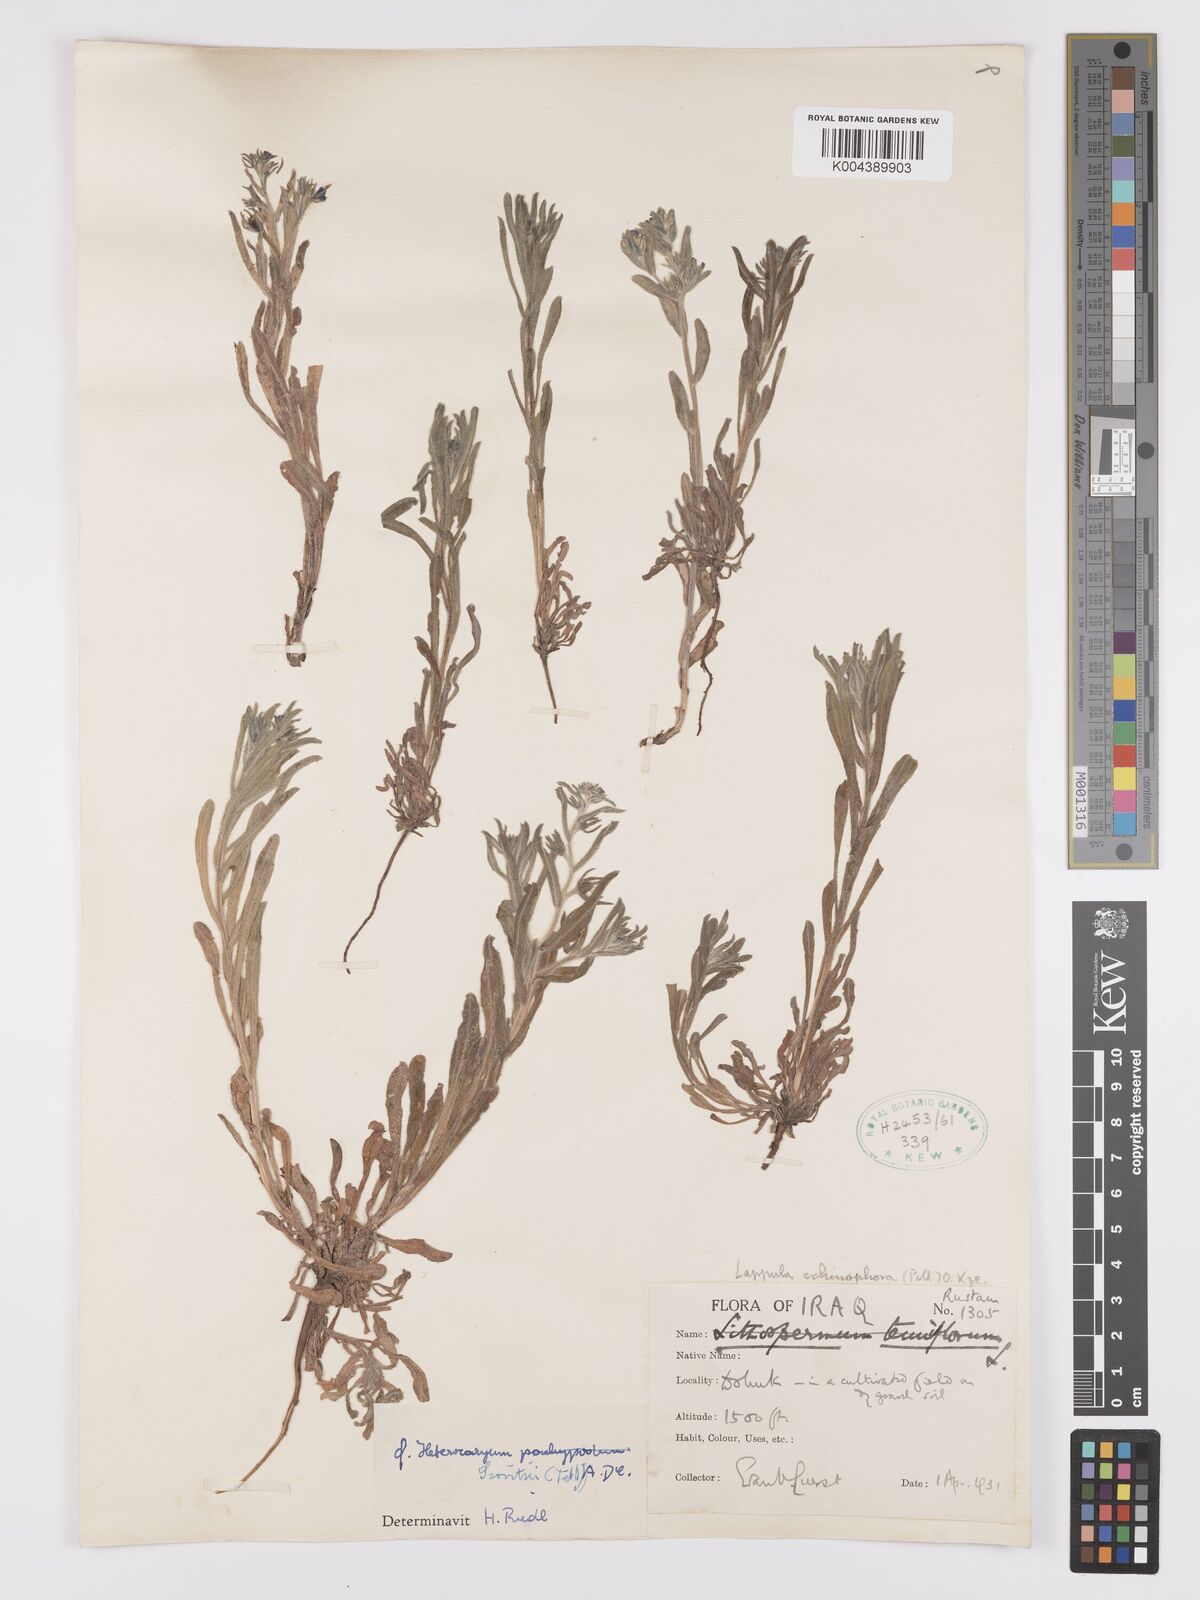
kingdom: Plantae
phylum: Tracheophyta
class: Magnoliopsida
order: Boraginales
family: Boraginaceae
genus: Pseudoheterocaryum
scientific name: Pseudoheterocaryum szovitsianum
